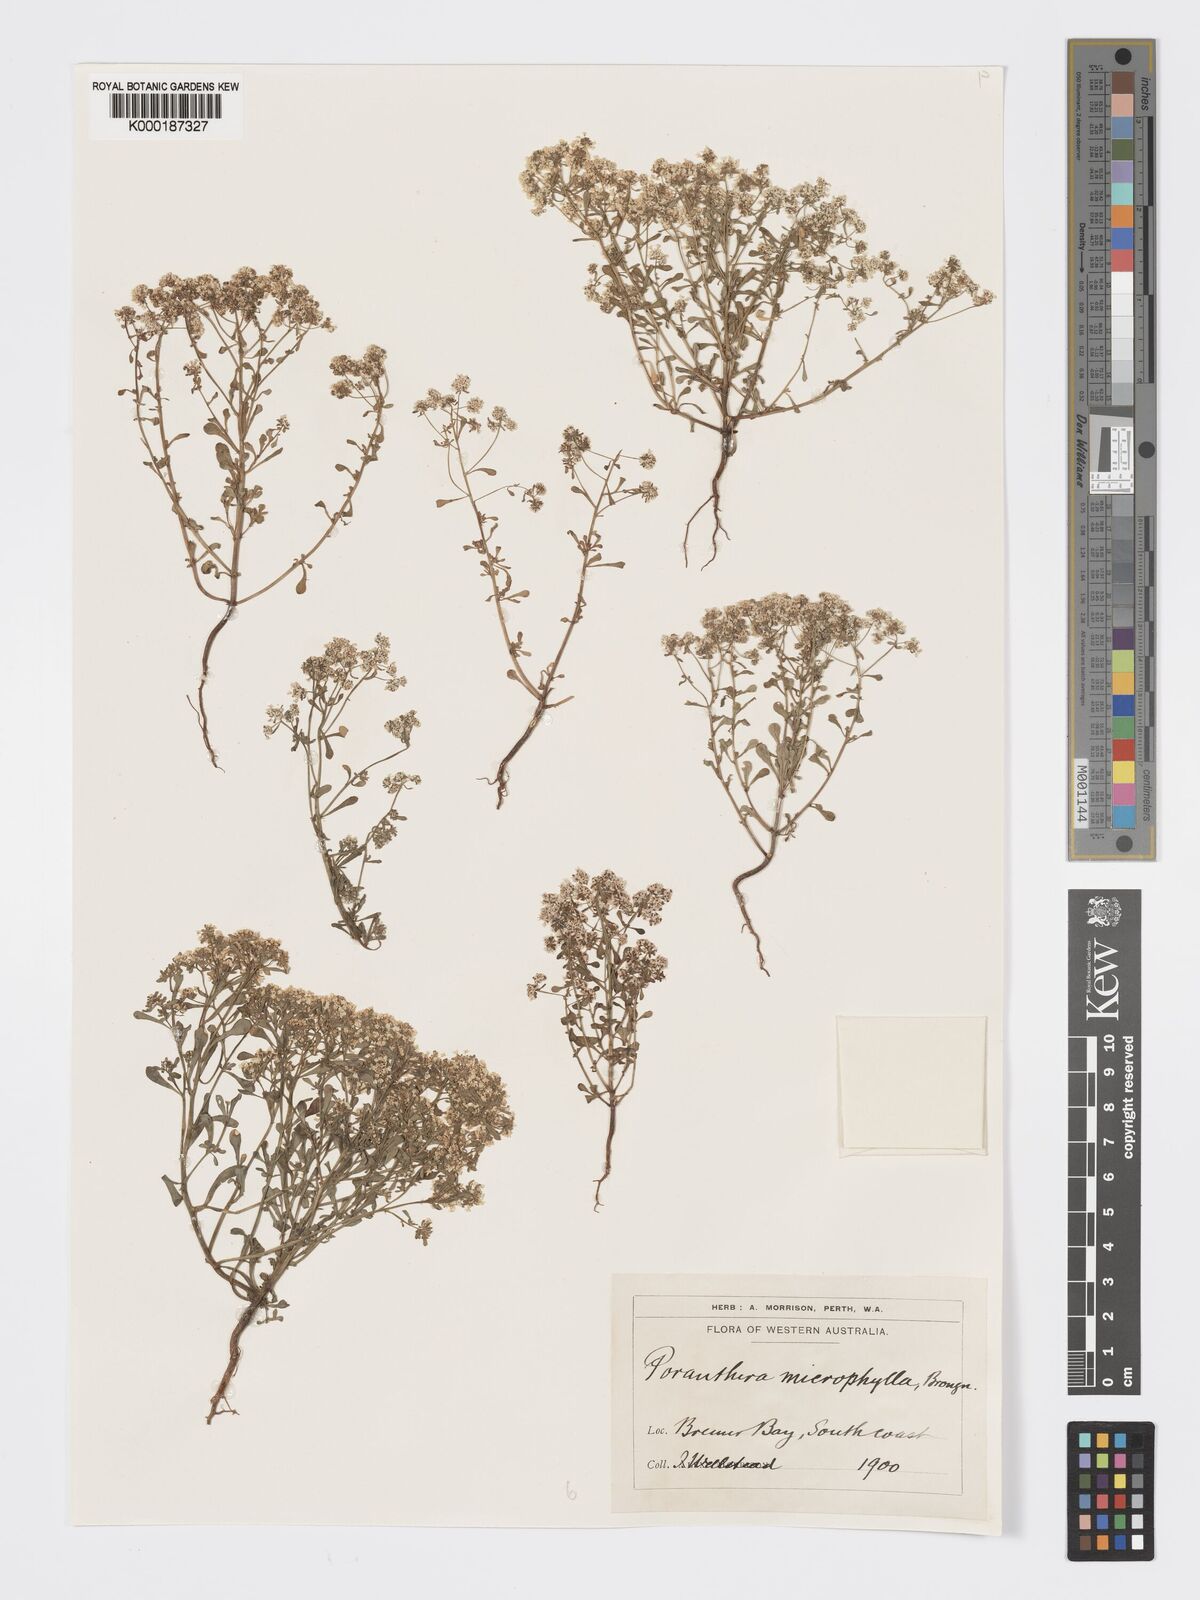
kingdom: Plantae
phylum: Tracheophyta
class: Magnoliopsida
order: Malpighiales
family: Phyllanthaceae
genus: Poranthera
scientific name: Poranthera microphylla
